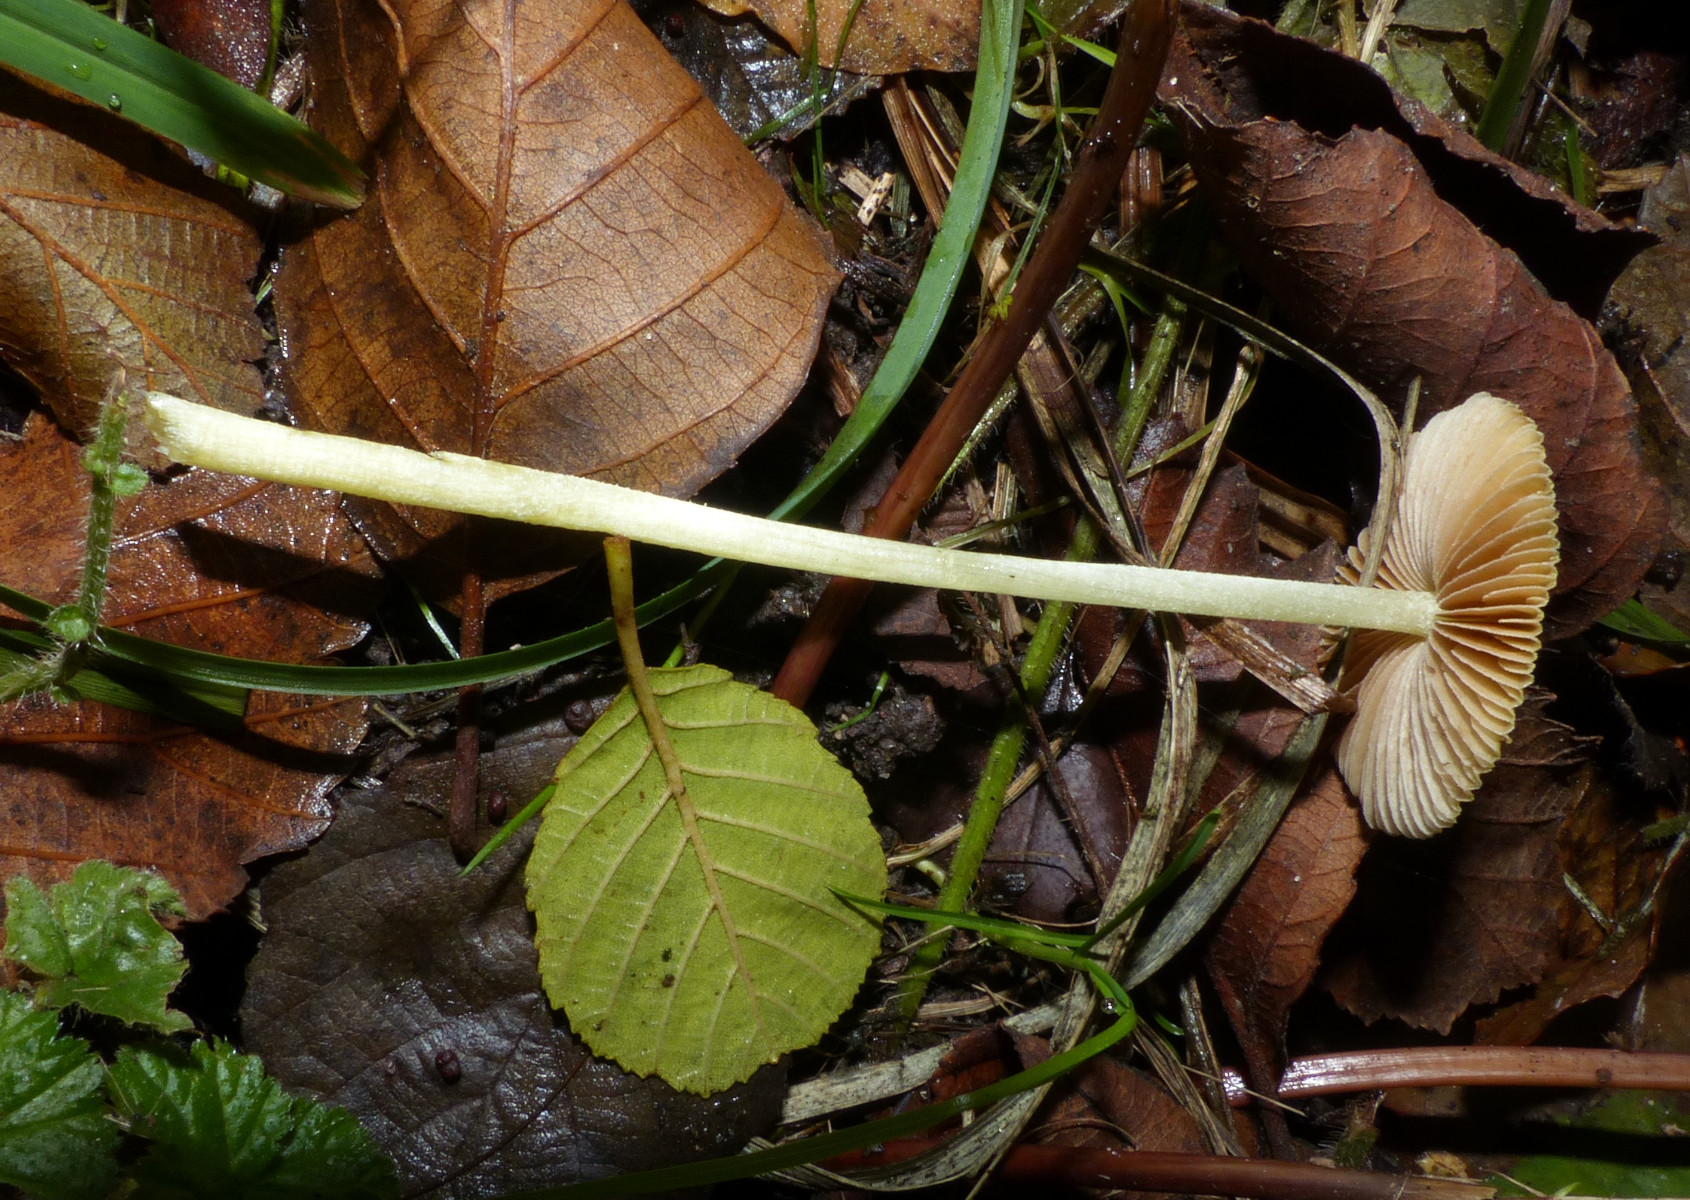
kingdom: Fungi
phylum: Basidiomycota
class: Agaricomycetes
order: Agaricales
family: Bolbitiaceae
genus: Bolbitius
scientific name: Bolbitius titubans
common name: almindelig gulhat
